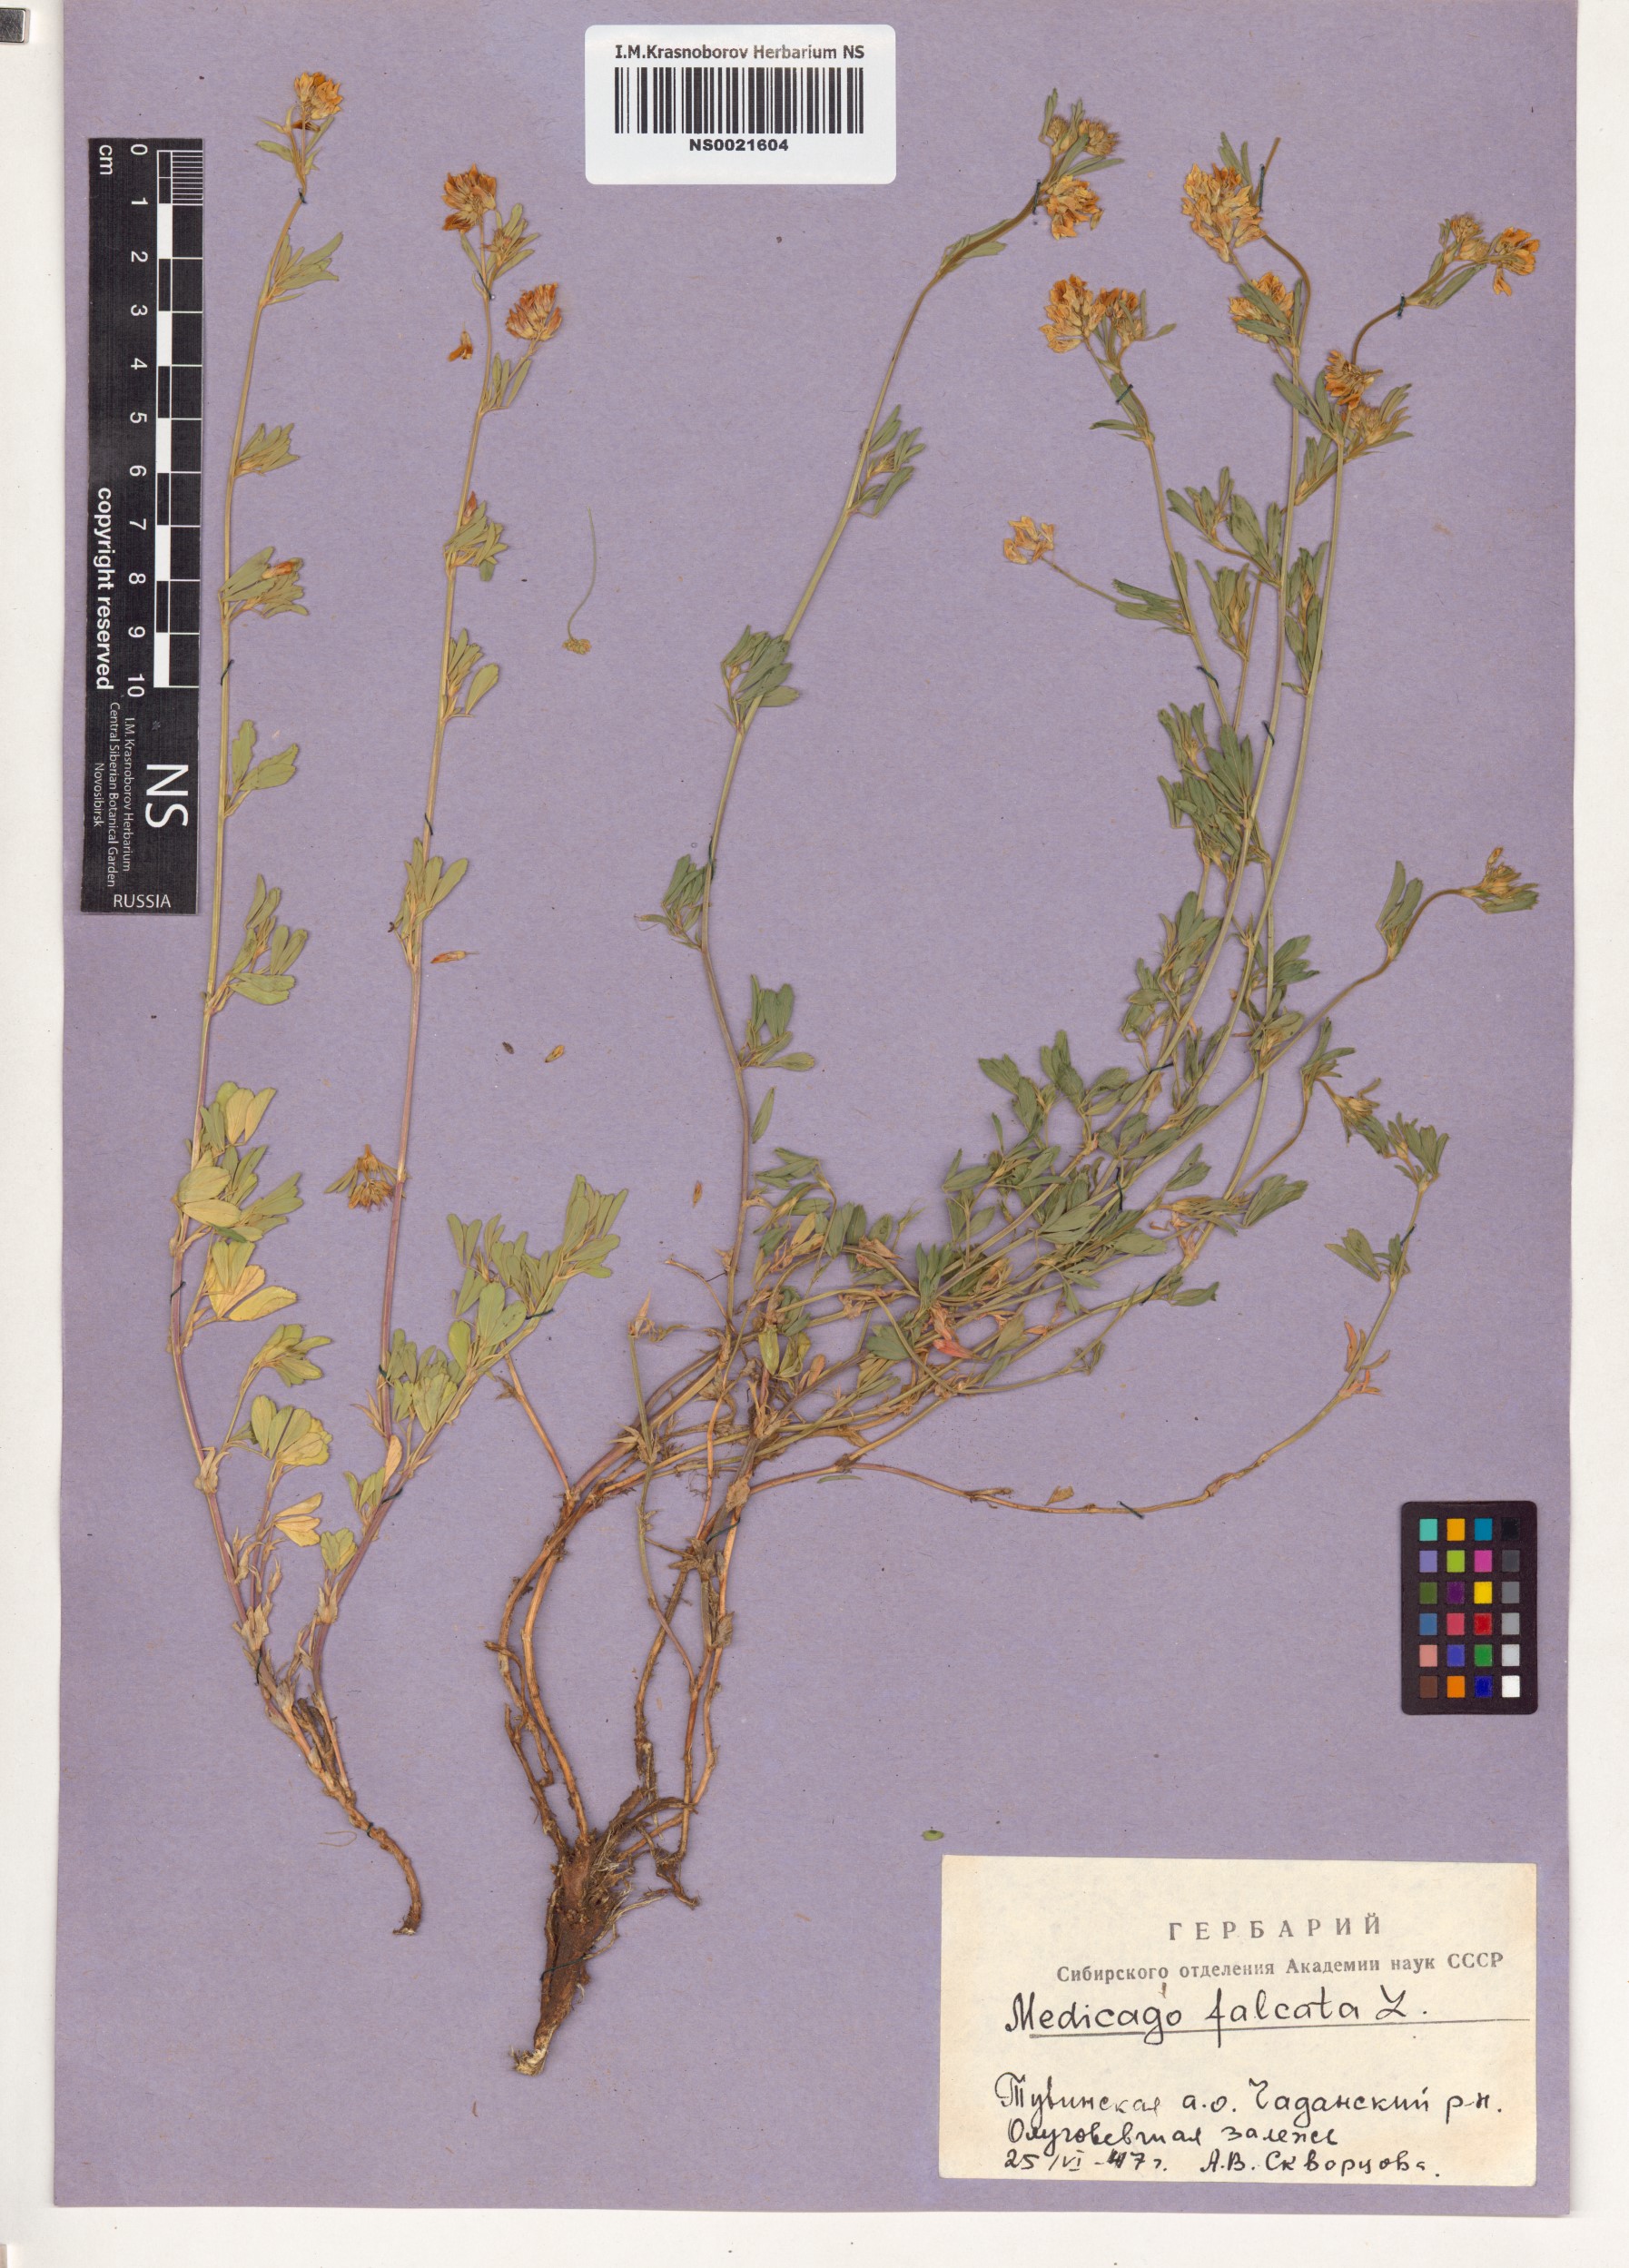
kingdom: Plantae
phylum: Tracheophyta
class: Magnoliopsida
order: Fabales
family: Fabaceae
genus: Medicago
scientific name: Medicago falcata
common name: Sickle medick
